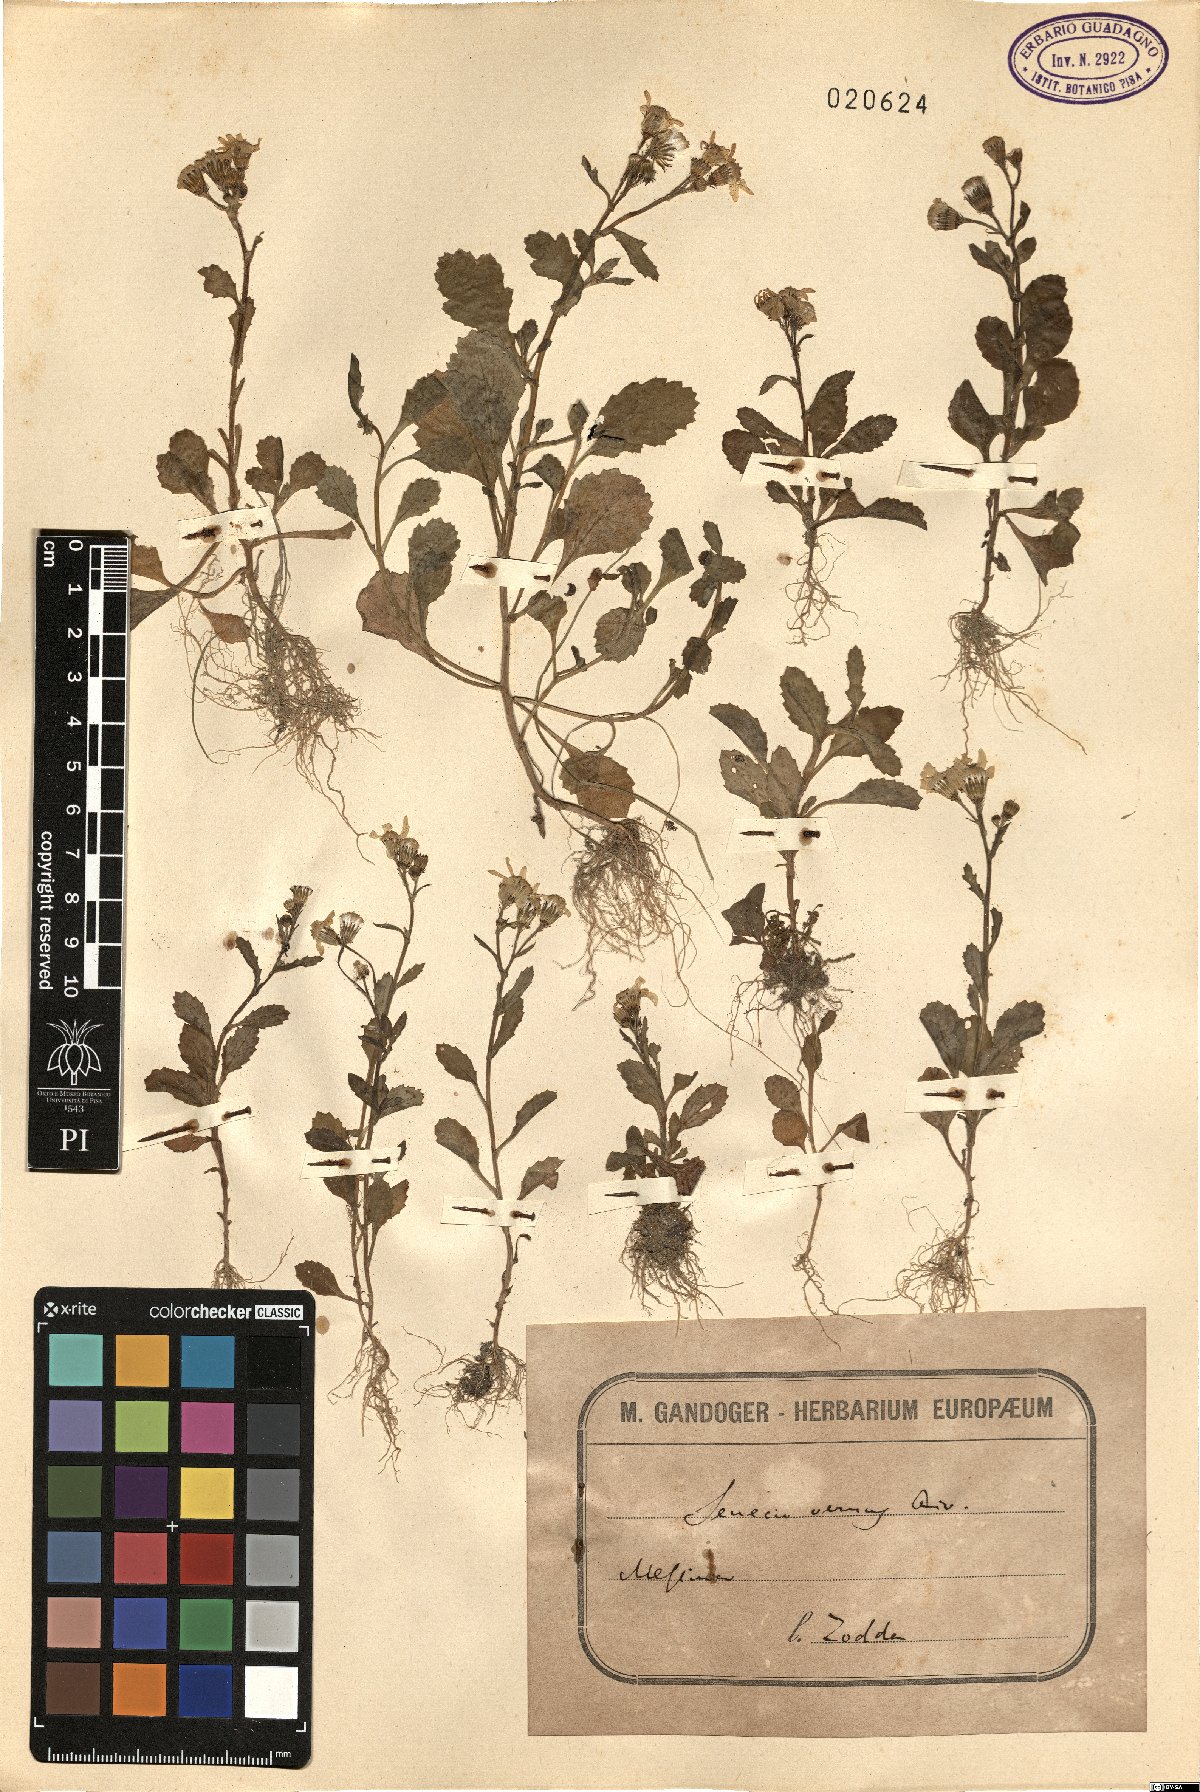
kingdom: Plantae
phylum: Tracheophyta
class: Magnoliopsida
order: Asterales
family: Asteraceae
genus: Senecio
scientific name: Senecio leucanthemifolius
